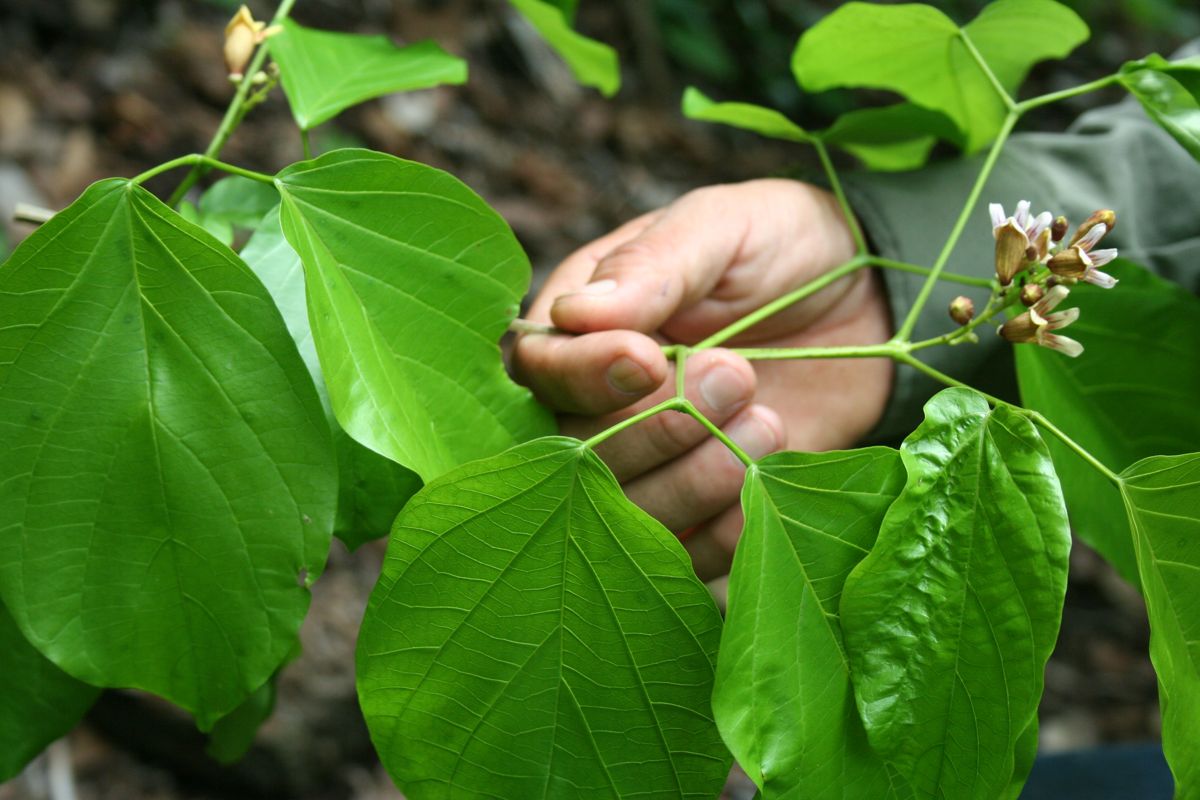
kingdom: Plantae
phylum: Tracheophyta
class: Magnoliopsida
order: Lamiales
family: Bignoniaceae
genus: Bignonia
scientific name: Bignonia hyacinthina
